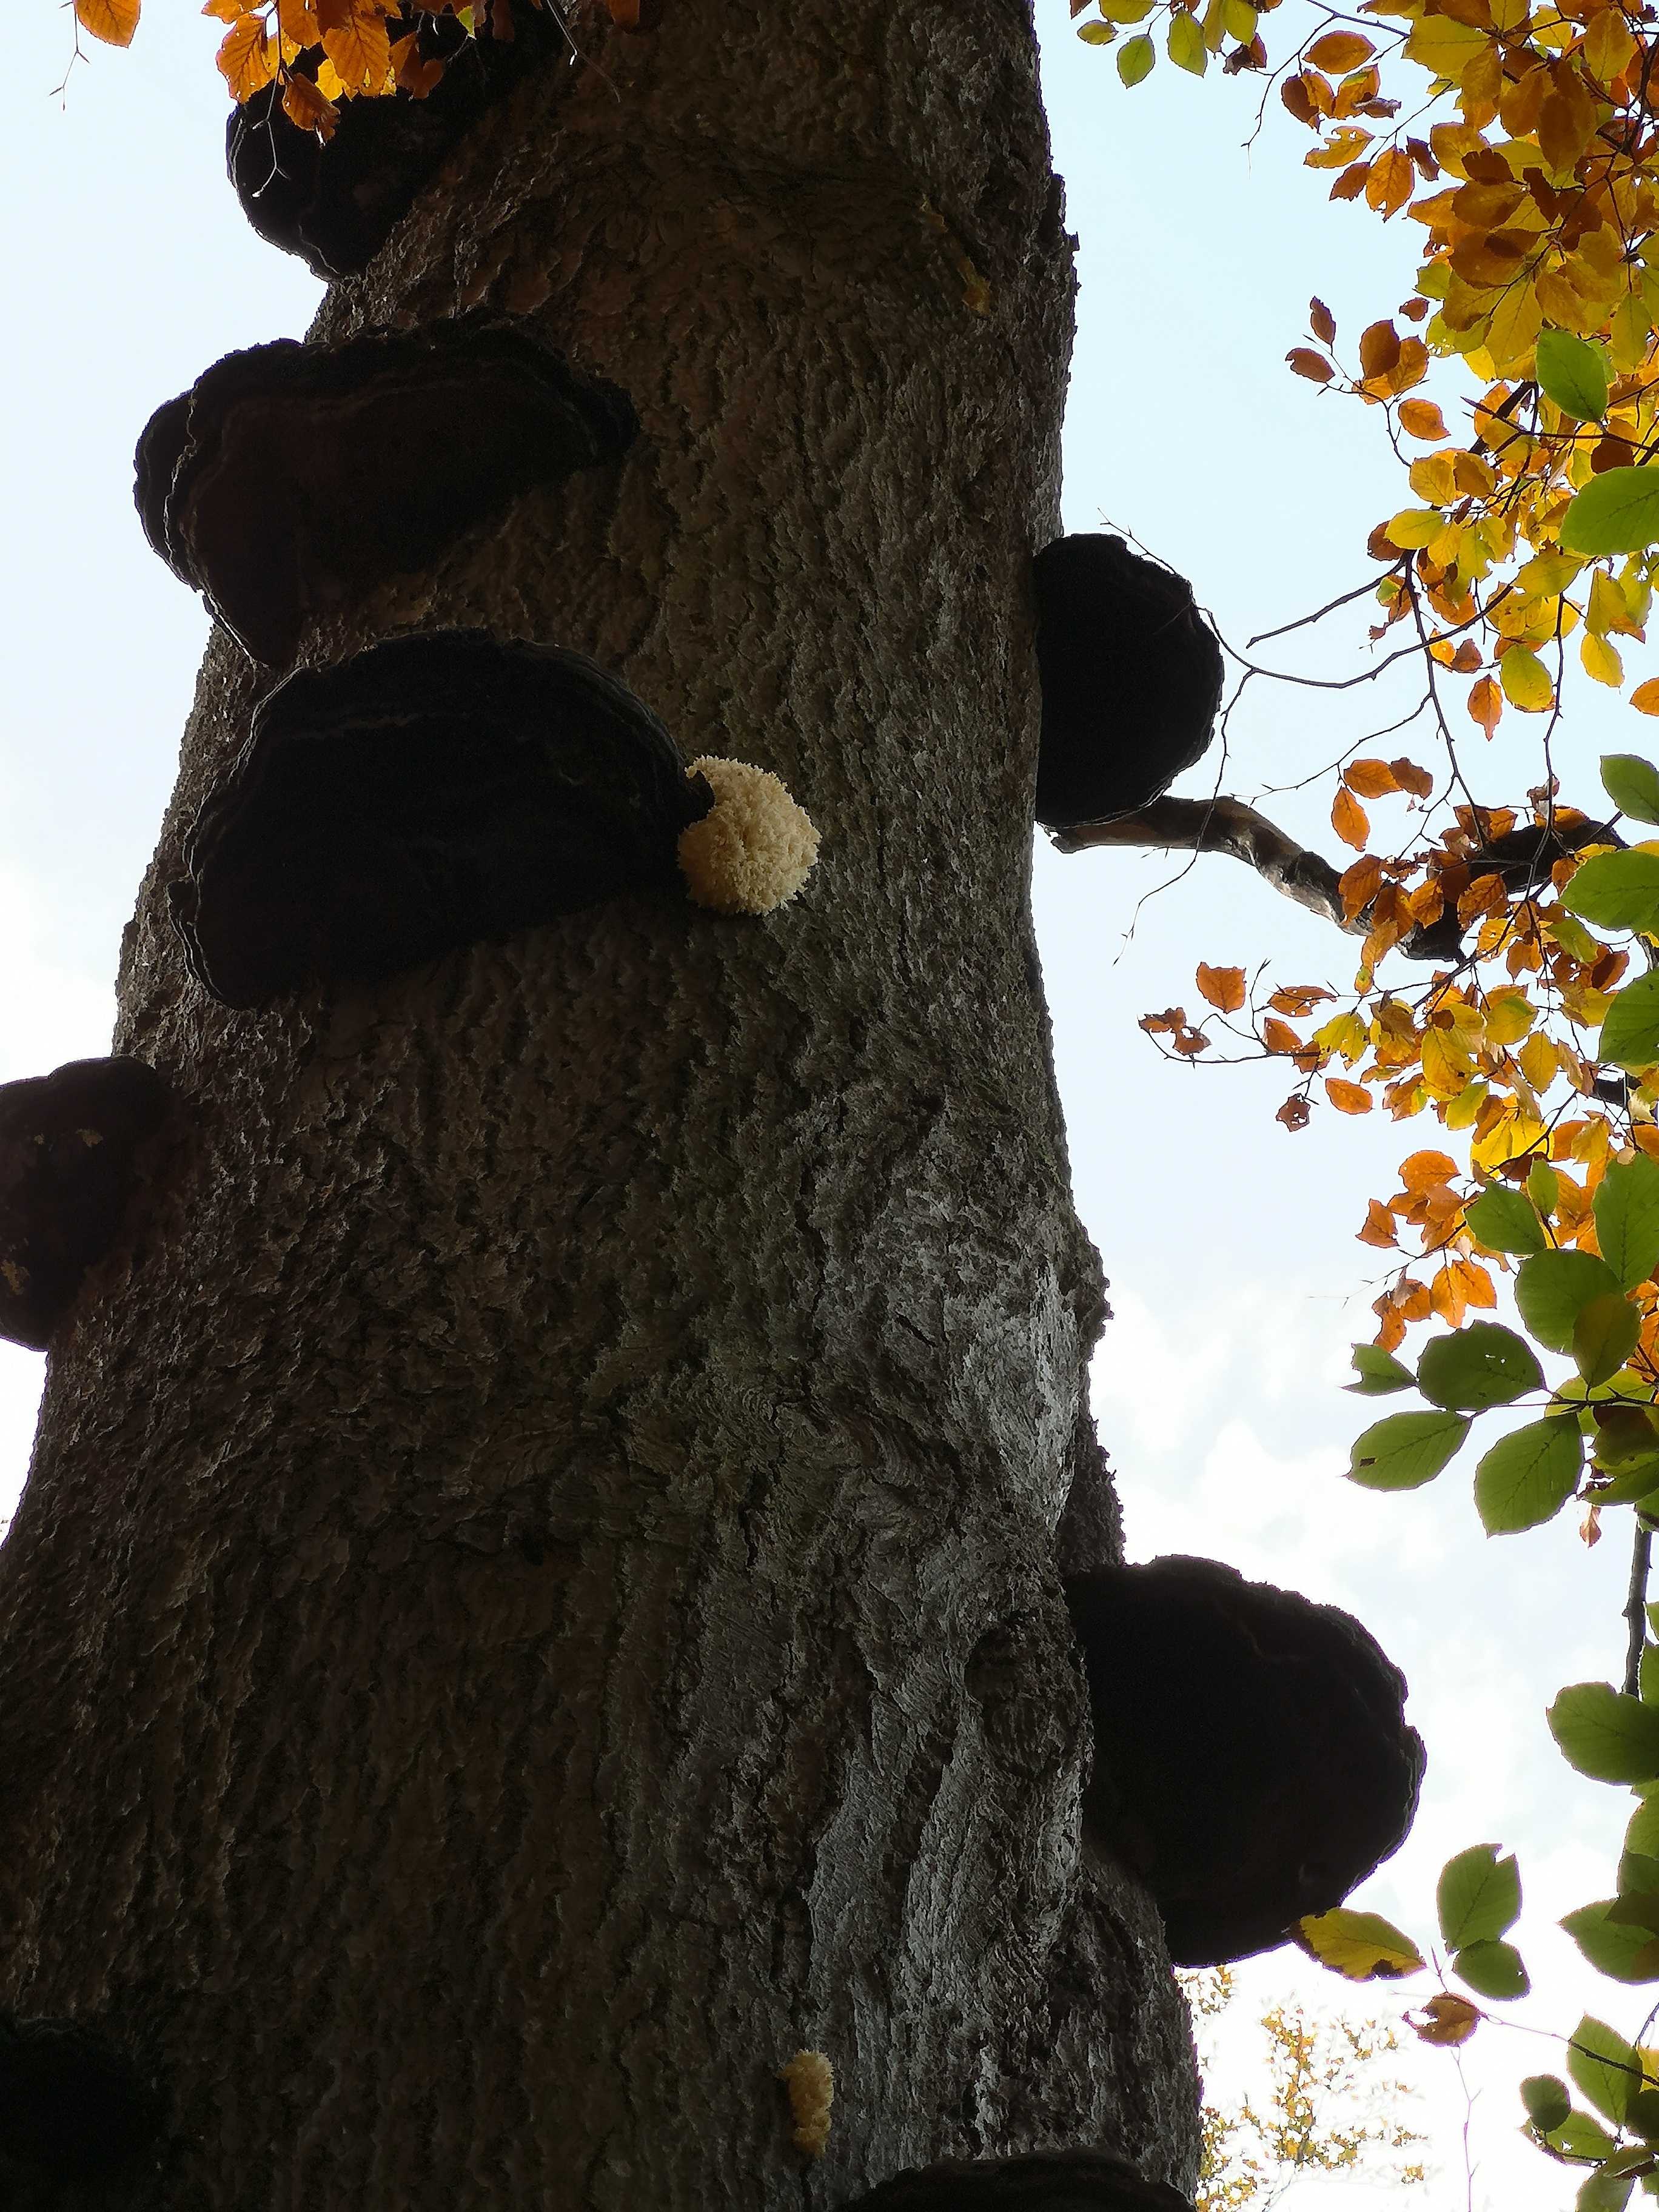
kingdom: Fungi
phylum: Basidiomycota
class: Agaricomycetes
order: Russulales
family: Hericiaceae
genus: Hericium
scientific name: Hericium coralloides
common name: koralpigsvamp
